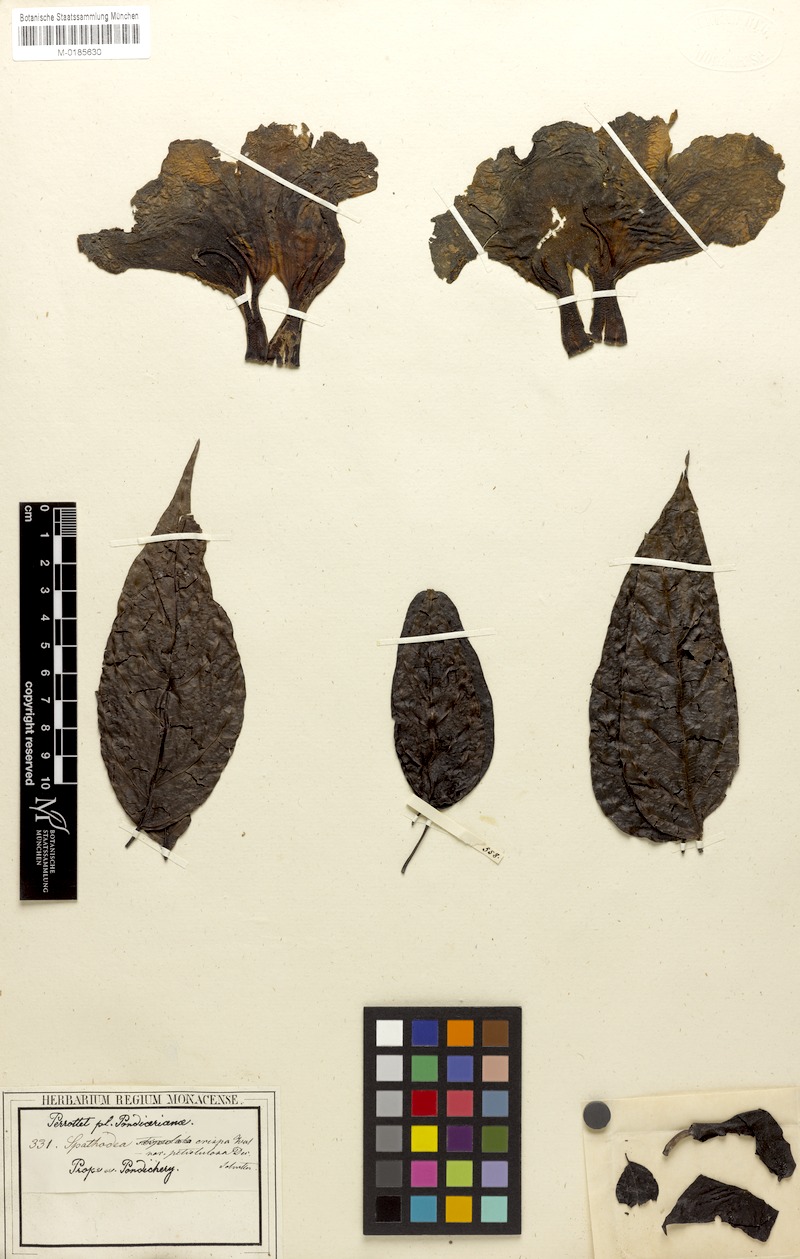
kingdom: Plantae
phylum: Tracheophyta
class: Magnoliopsida
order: Lamiales
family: Bignoniaceae
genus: Dolichandrone
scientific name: Dolichandrone atrovirens
